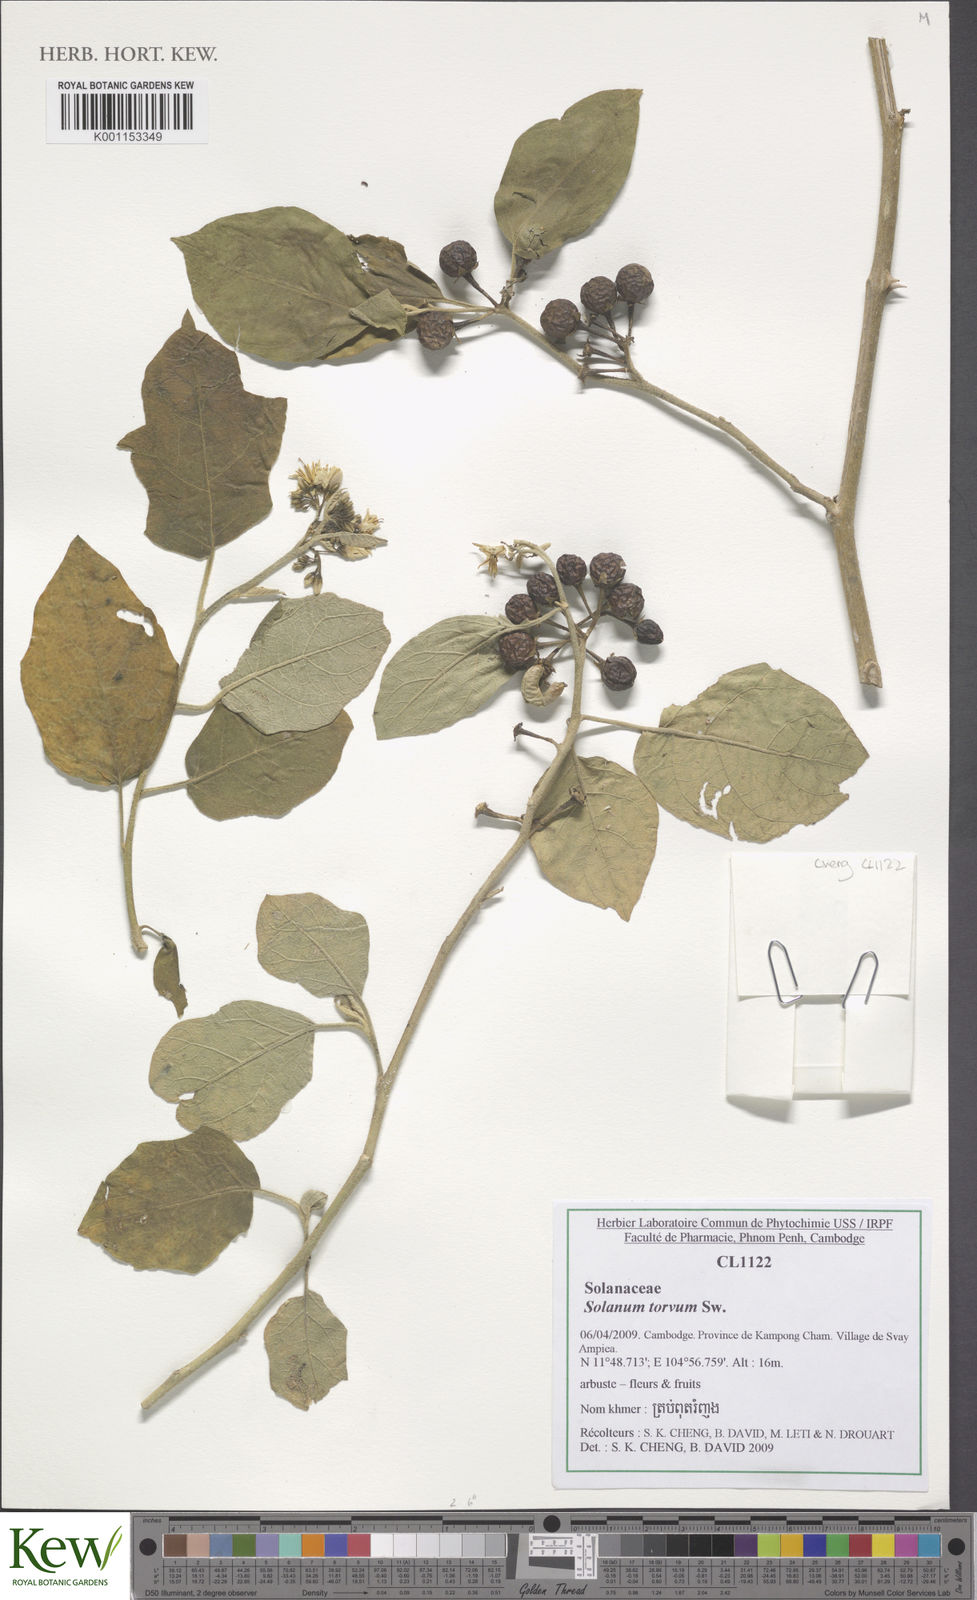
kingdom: Plantae
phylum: Tracheophyta
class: Magnoliopsida
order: Solanales
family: Solanaceae
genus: Solanum
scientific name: Solanum torvum
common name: Turkey berry
